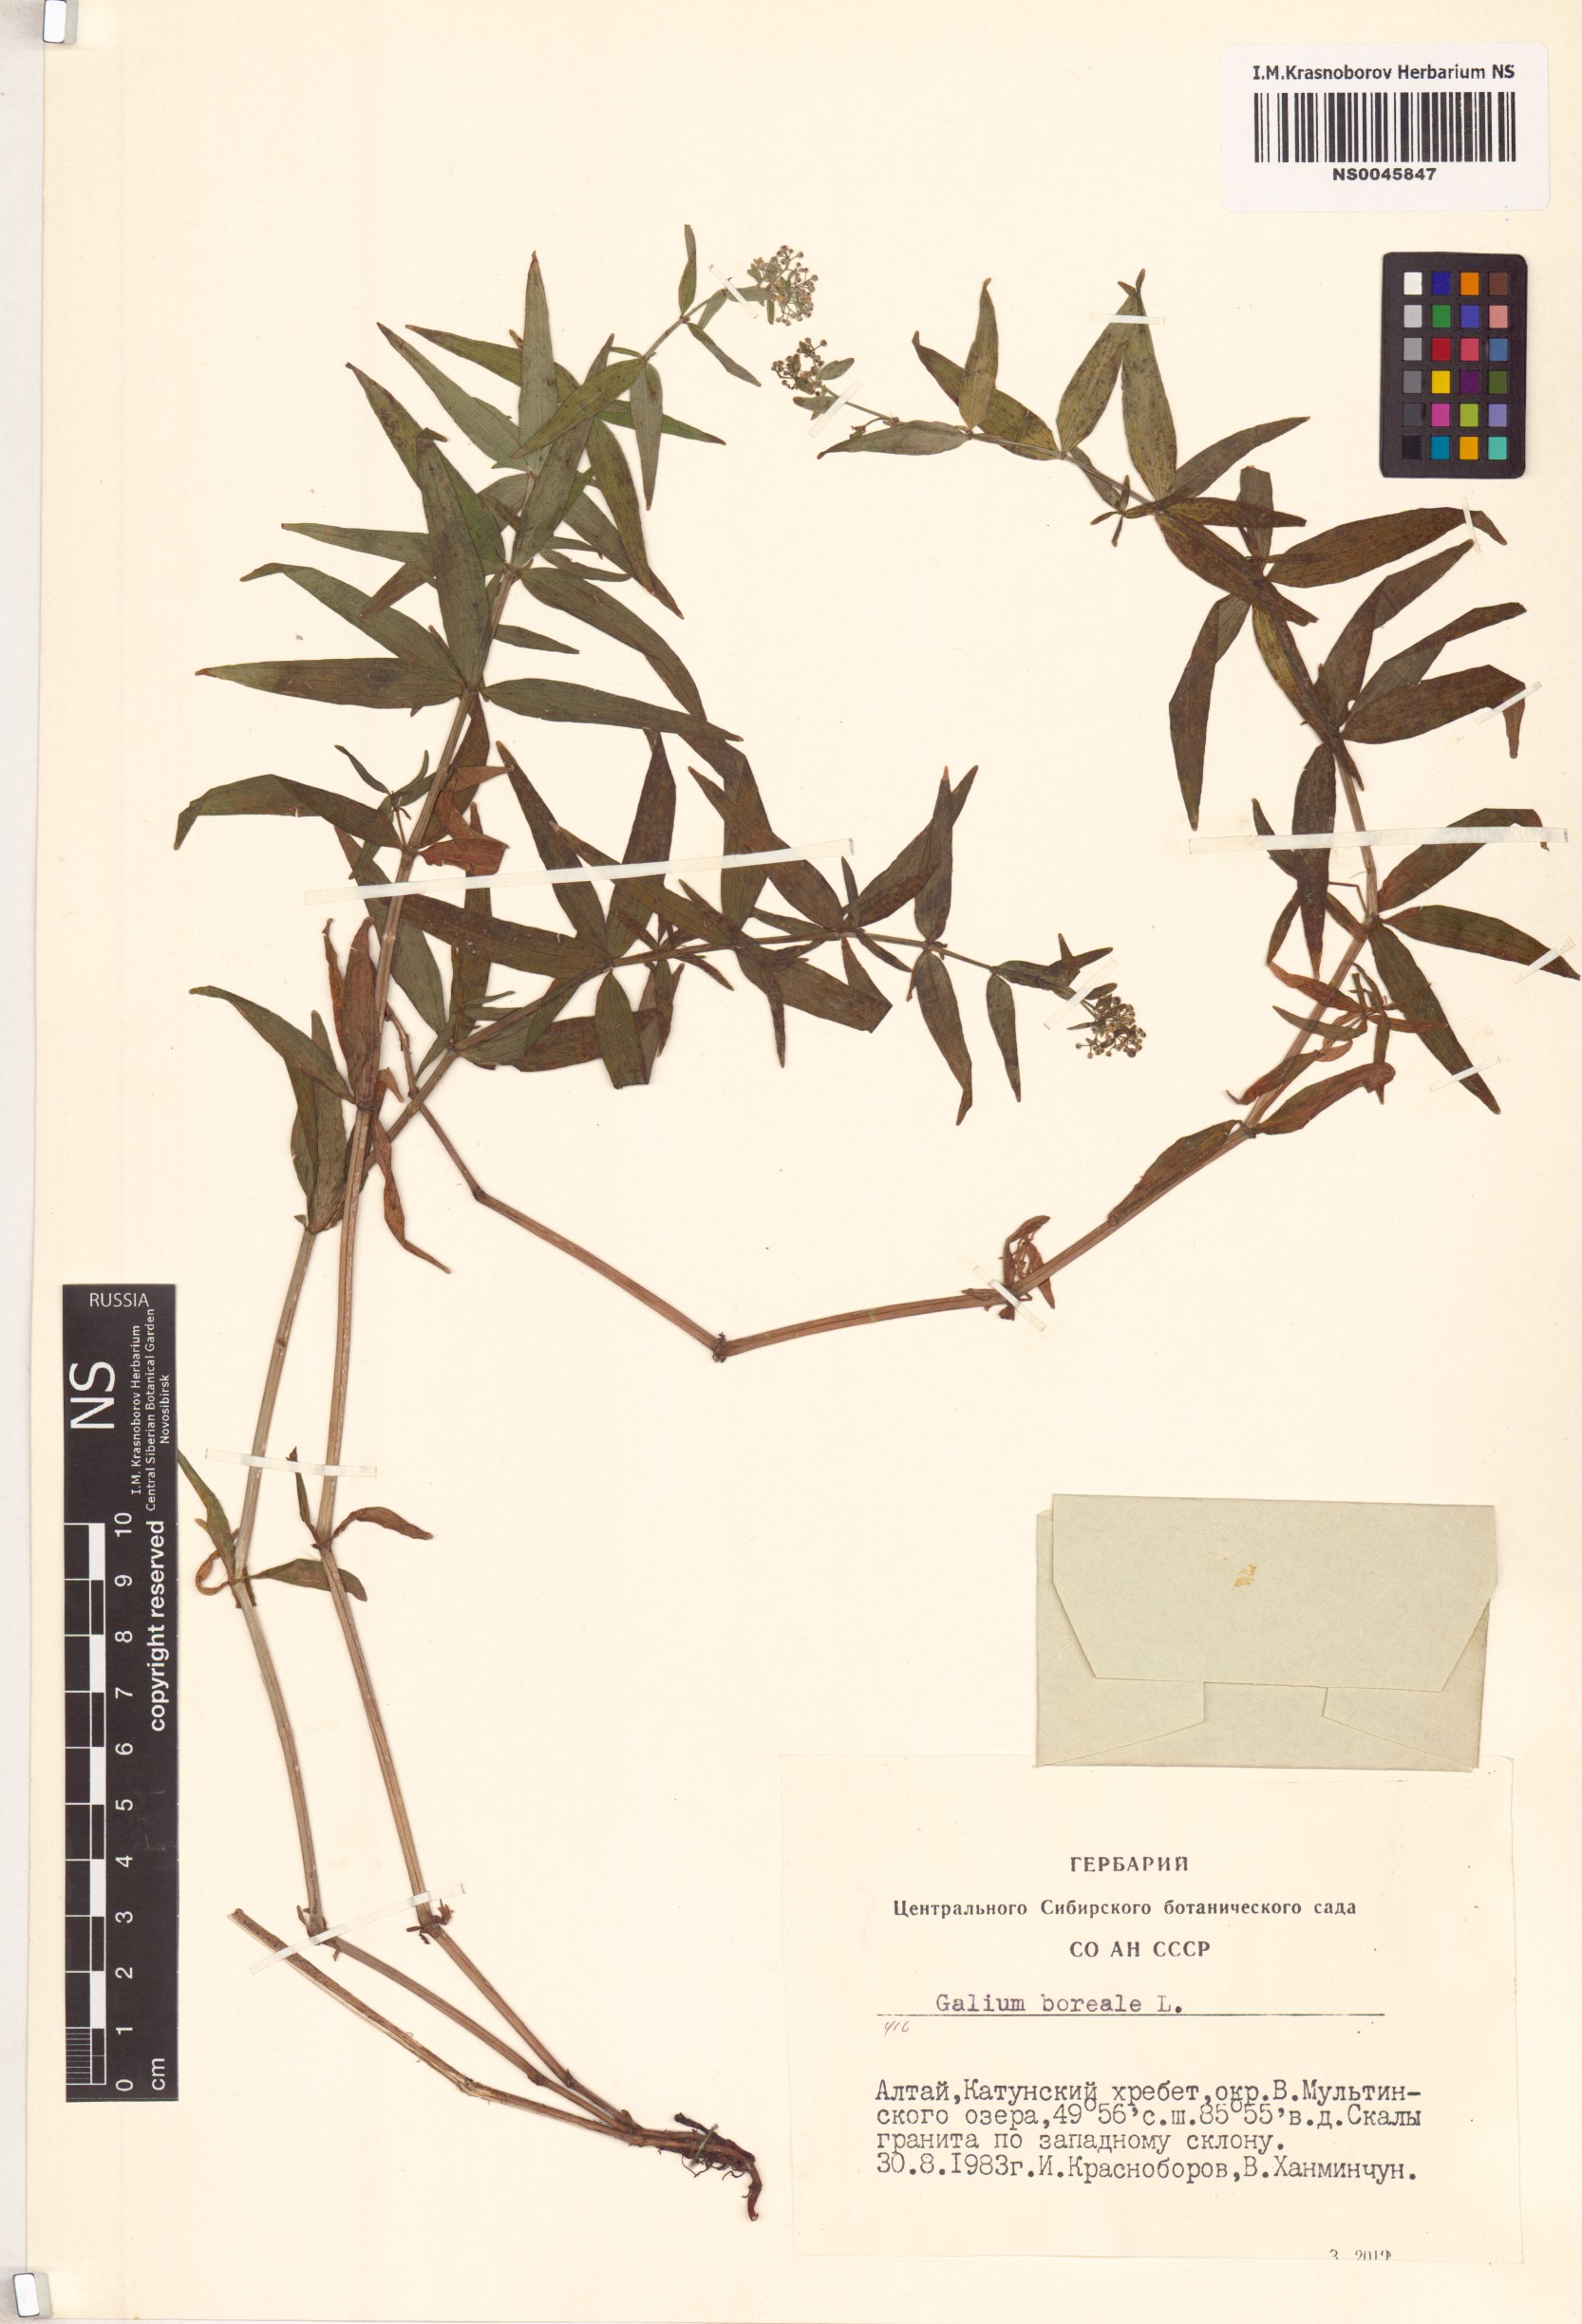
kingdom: Plantae
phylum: Tracheophyta
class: Magnoliopsida
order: Gentianales
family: Rubiaceae
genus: Galium
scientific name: Galium boreale
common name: Northern bedstraw
